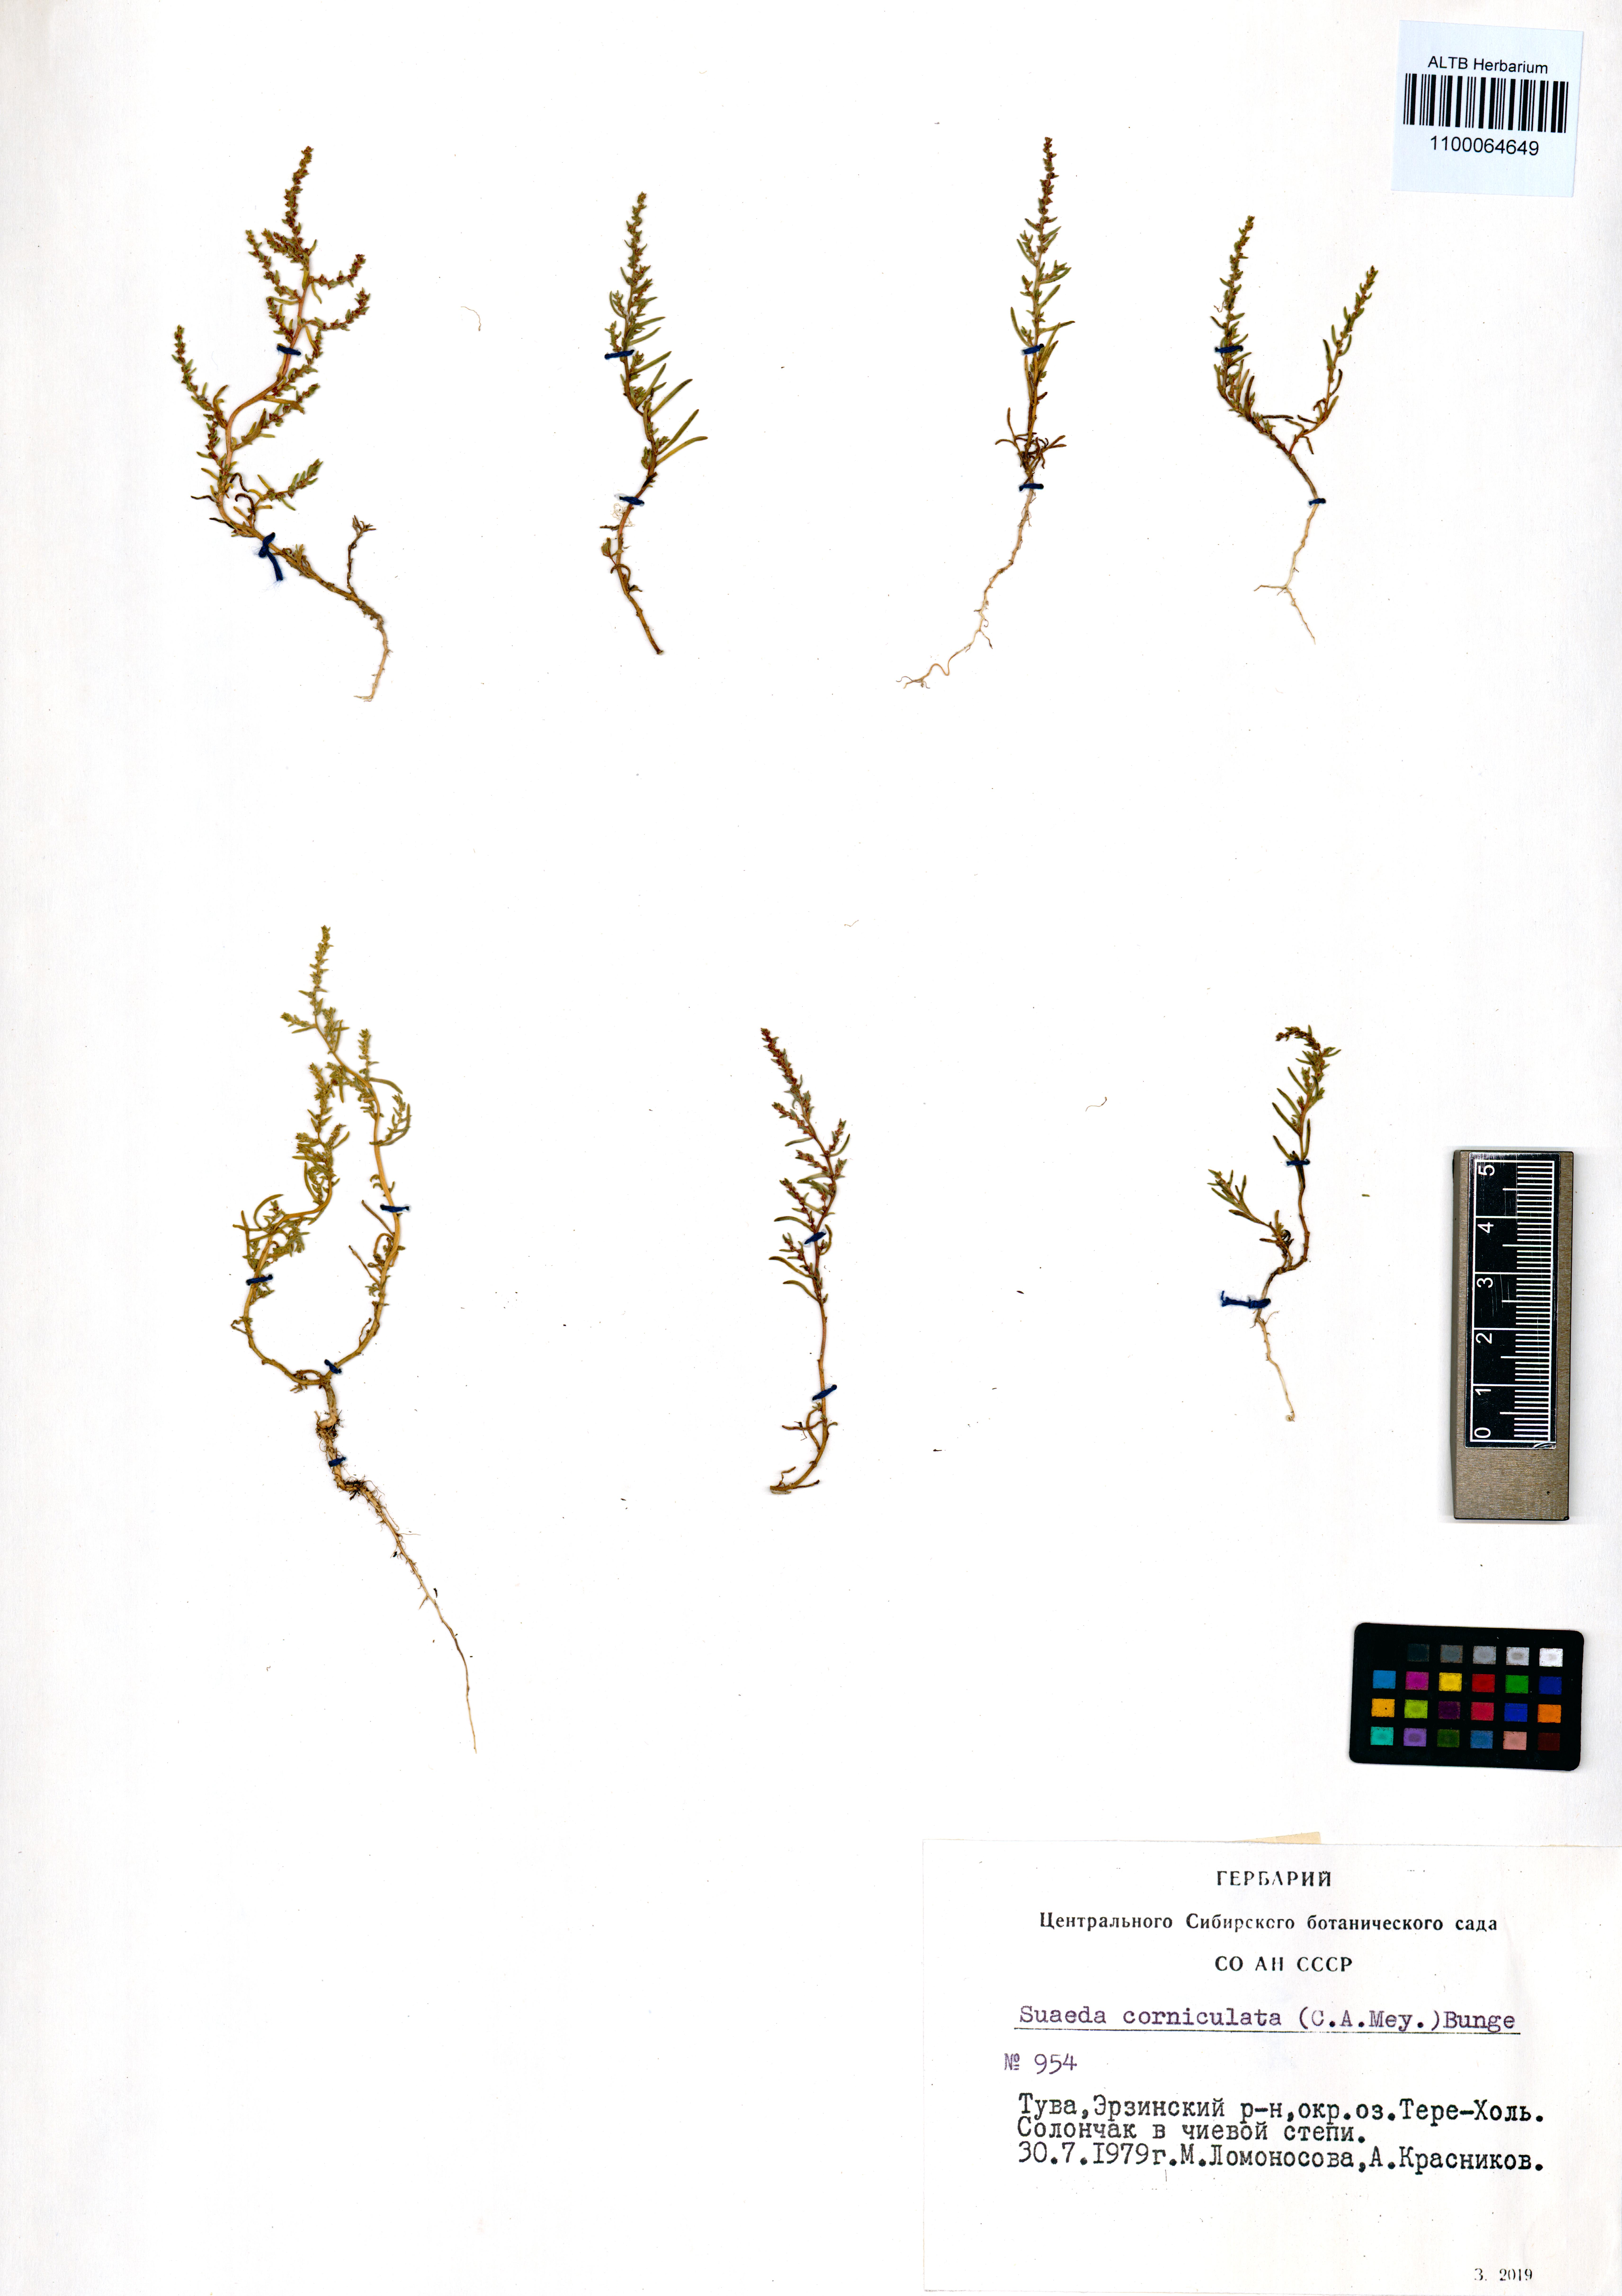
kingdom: Plantae
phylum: Tracheophyta
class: Magnoliopsida
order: Caryophyllales
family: Amaranthaceae
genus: Suaeda
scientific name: Suaeda corniculata
